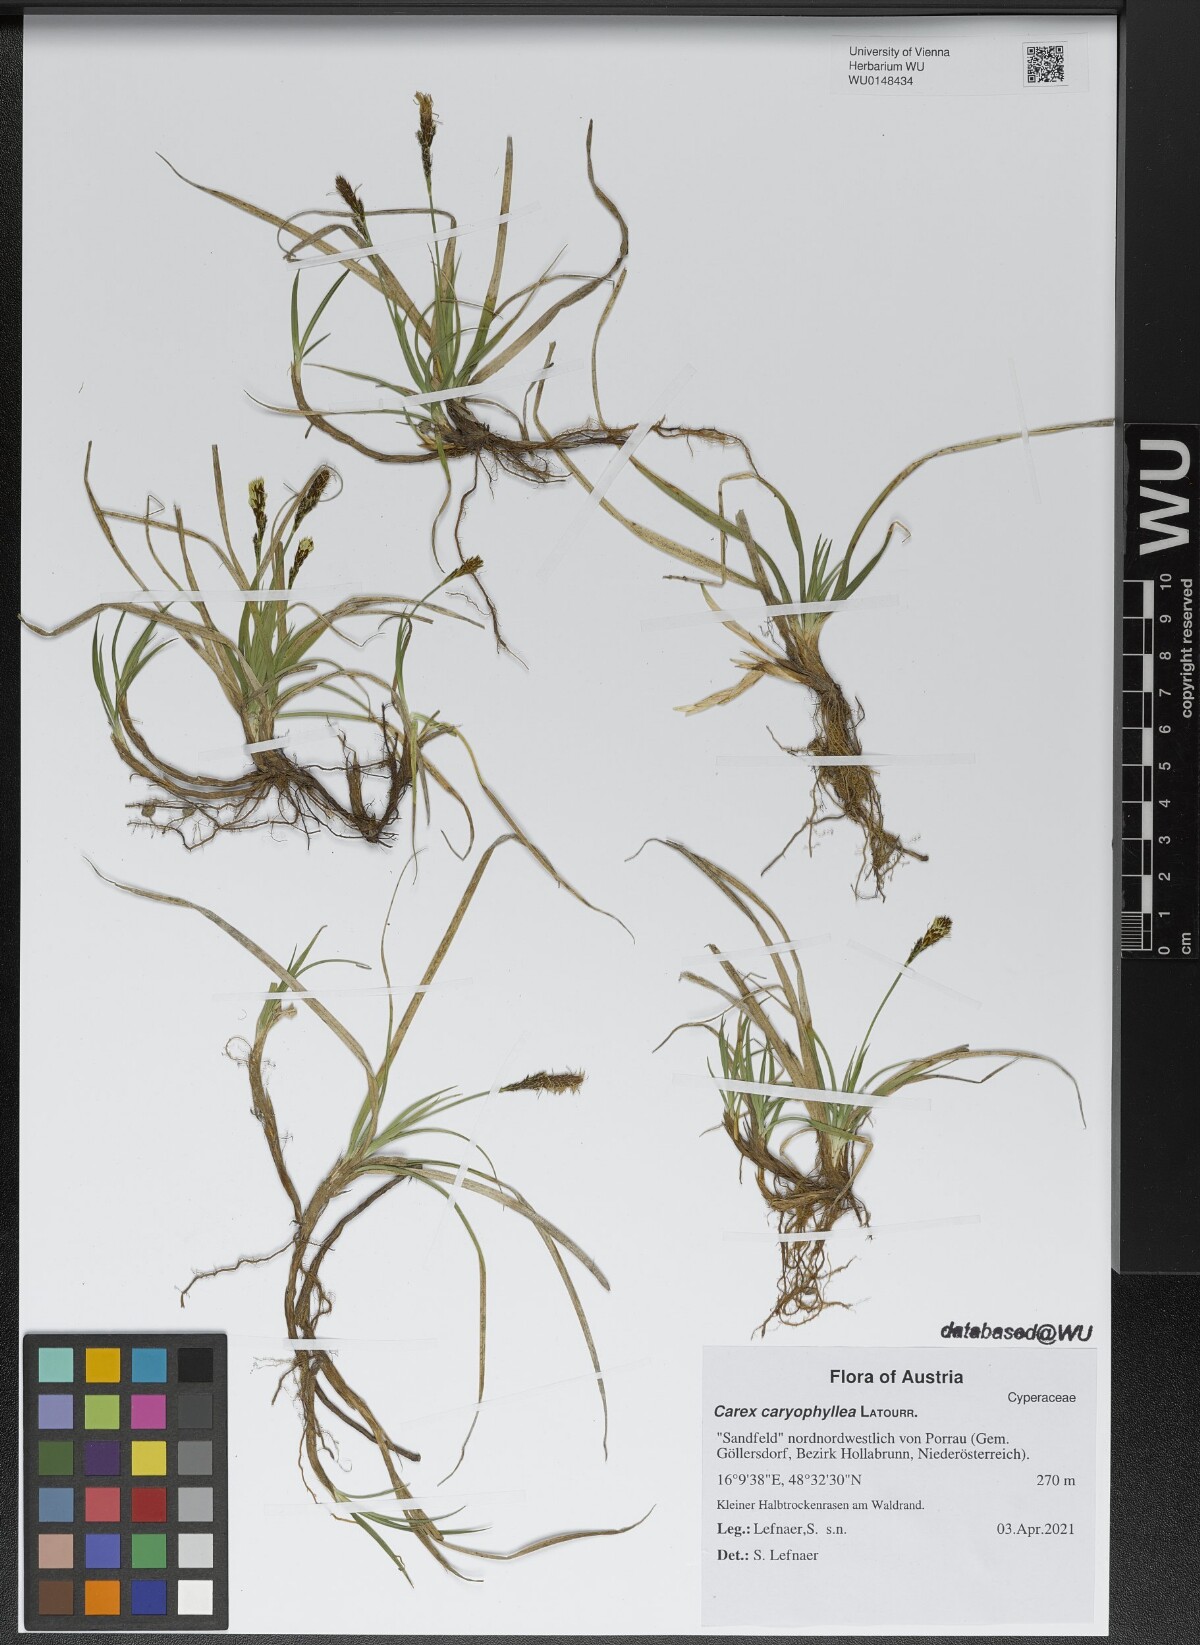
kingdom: Plantae
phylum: Tracheophyta
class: Liliopsida
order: Poales
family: Cyperaceae
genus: Carex
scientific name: Carex caryophyllea
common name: Spring sedge
